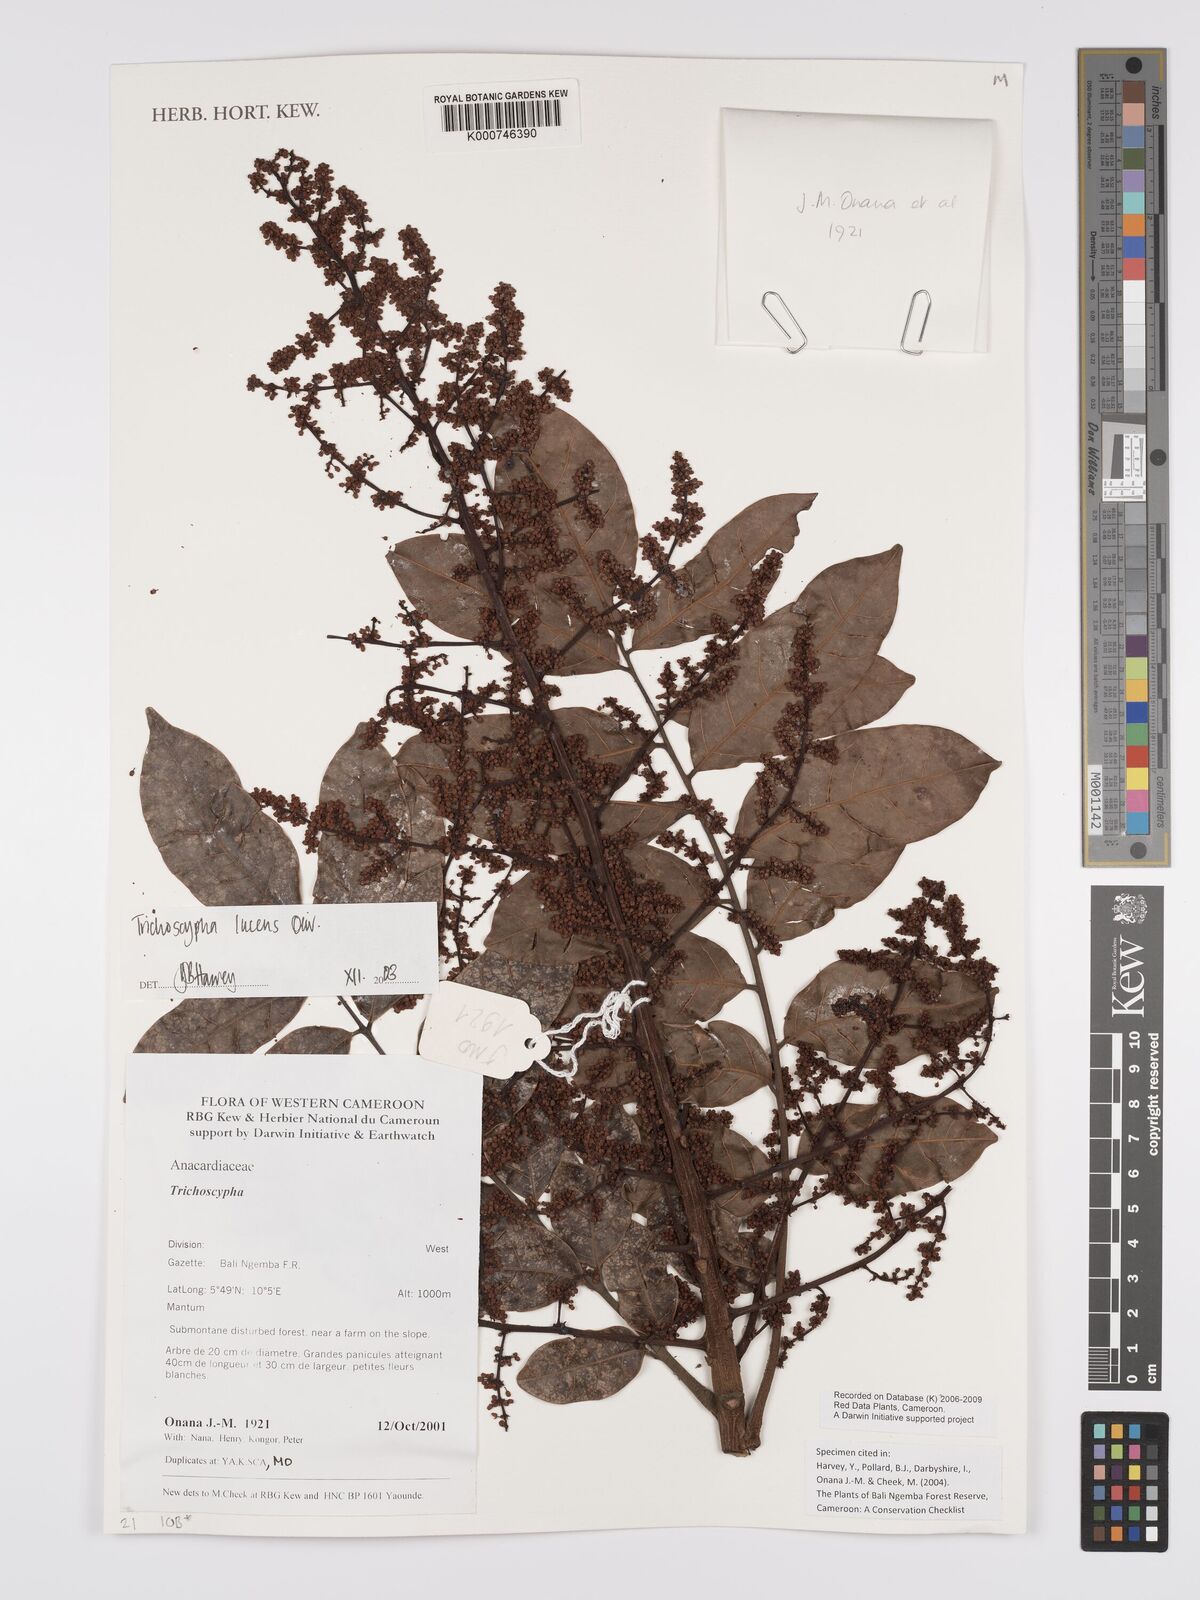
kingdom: Plantae
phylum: Tracheophyta
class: Magnoliopsida
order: Sapindales
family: Anacardiaceae
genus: Trichoscypha
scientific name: Trichoscypha lucens
